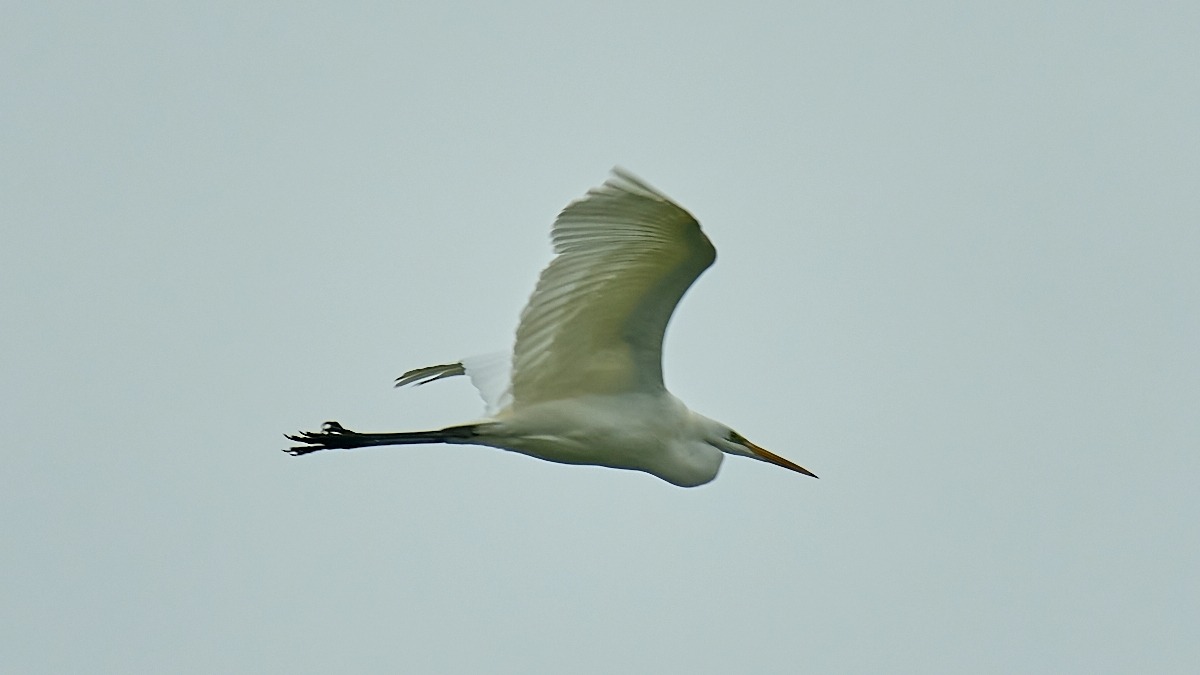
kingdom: Animalia
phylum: Chordata
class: Aves
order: Pelecaniformes
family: Ardeidae
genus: Ardea
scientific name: Ardea alba
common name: Sølvhejre
